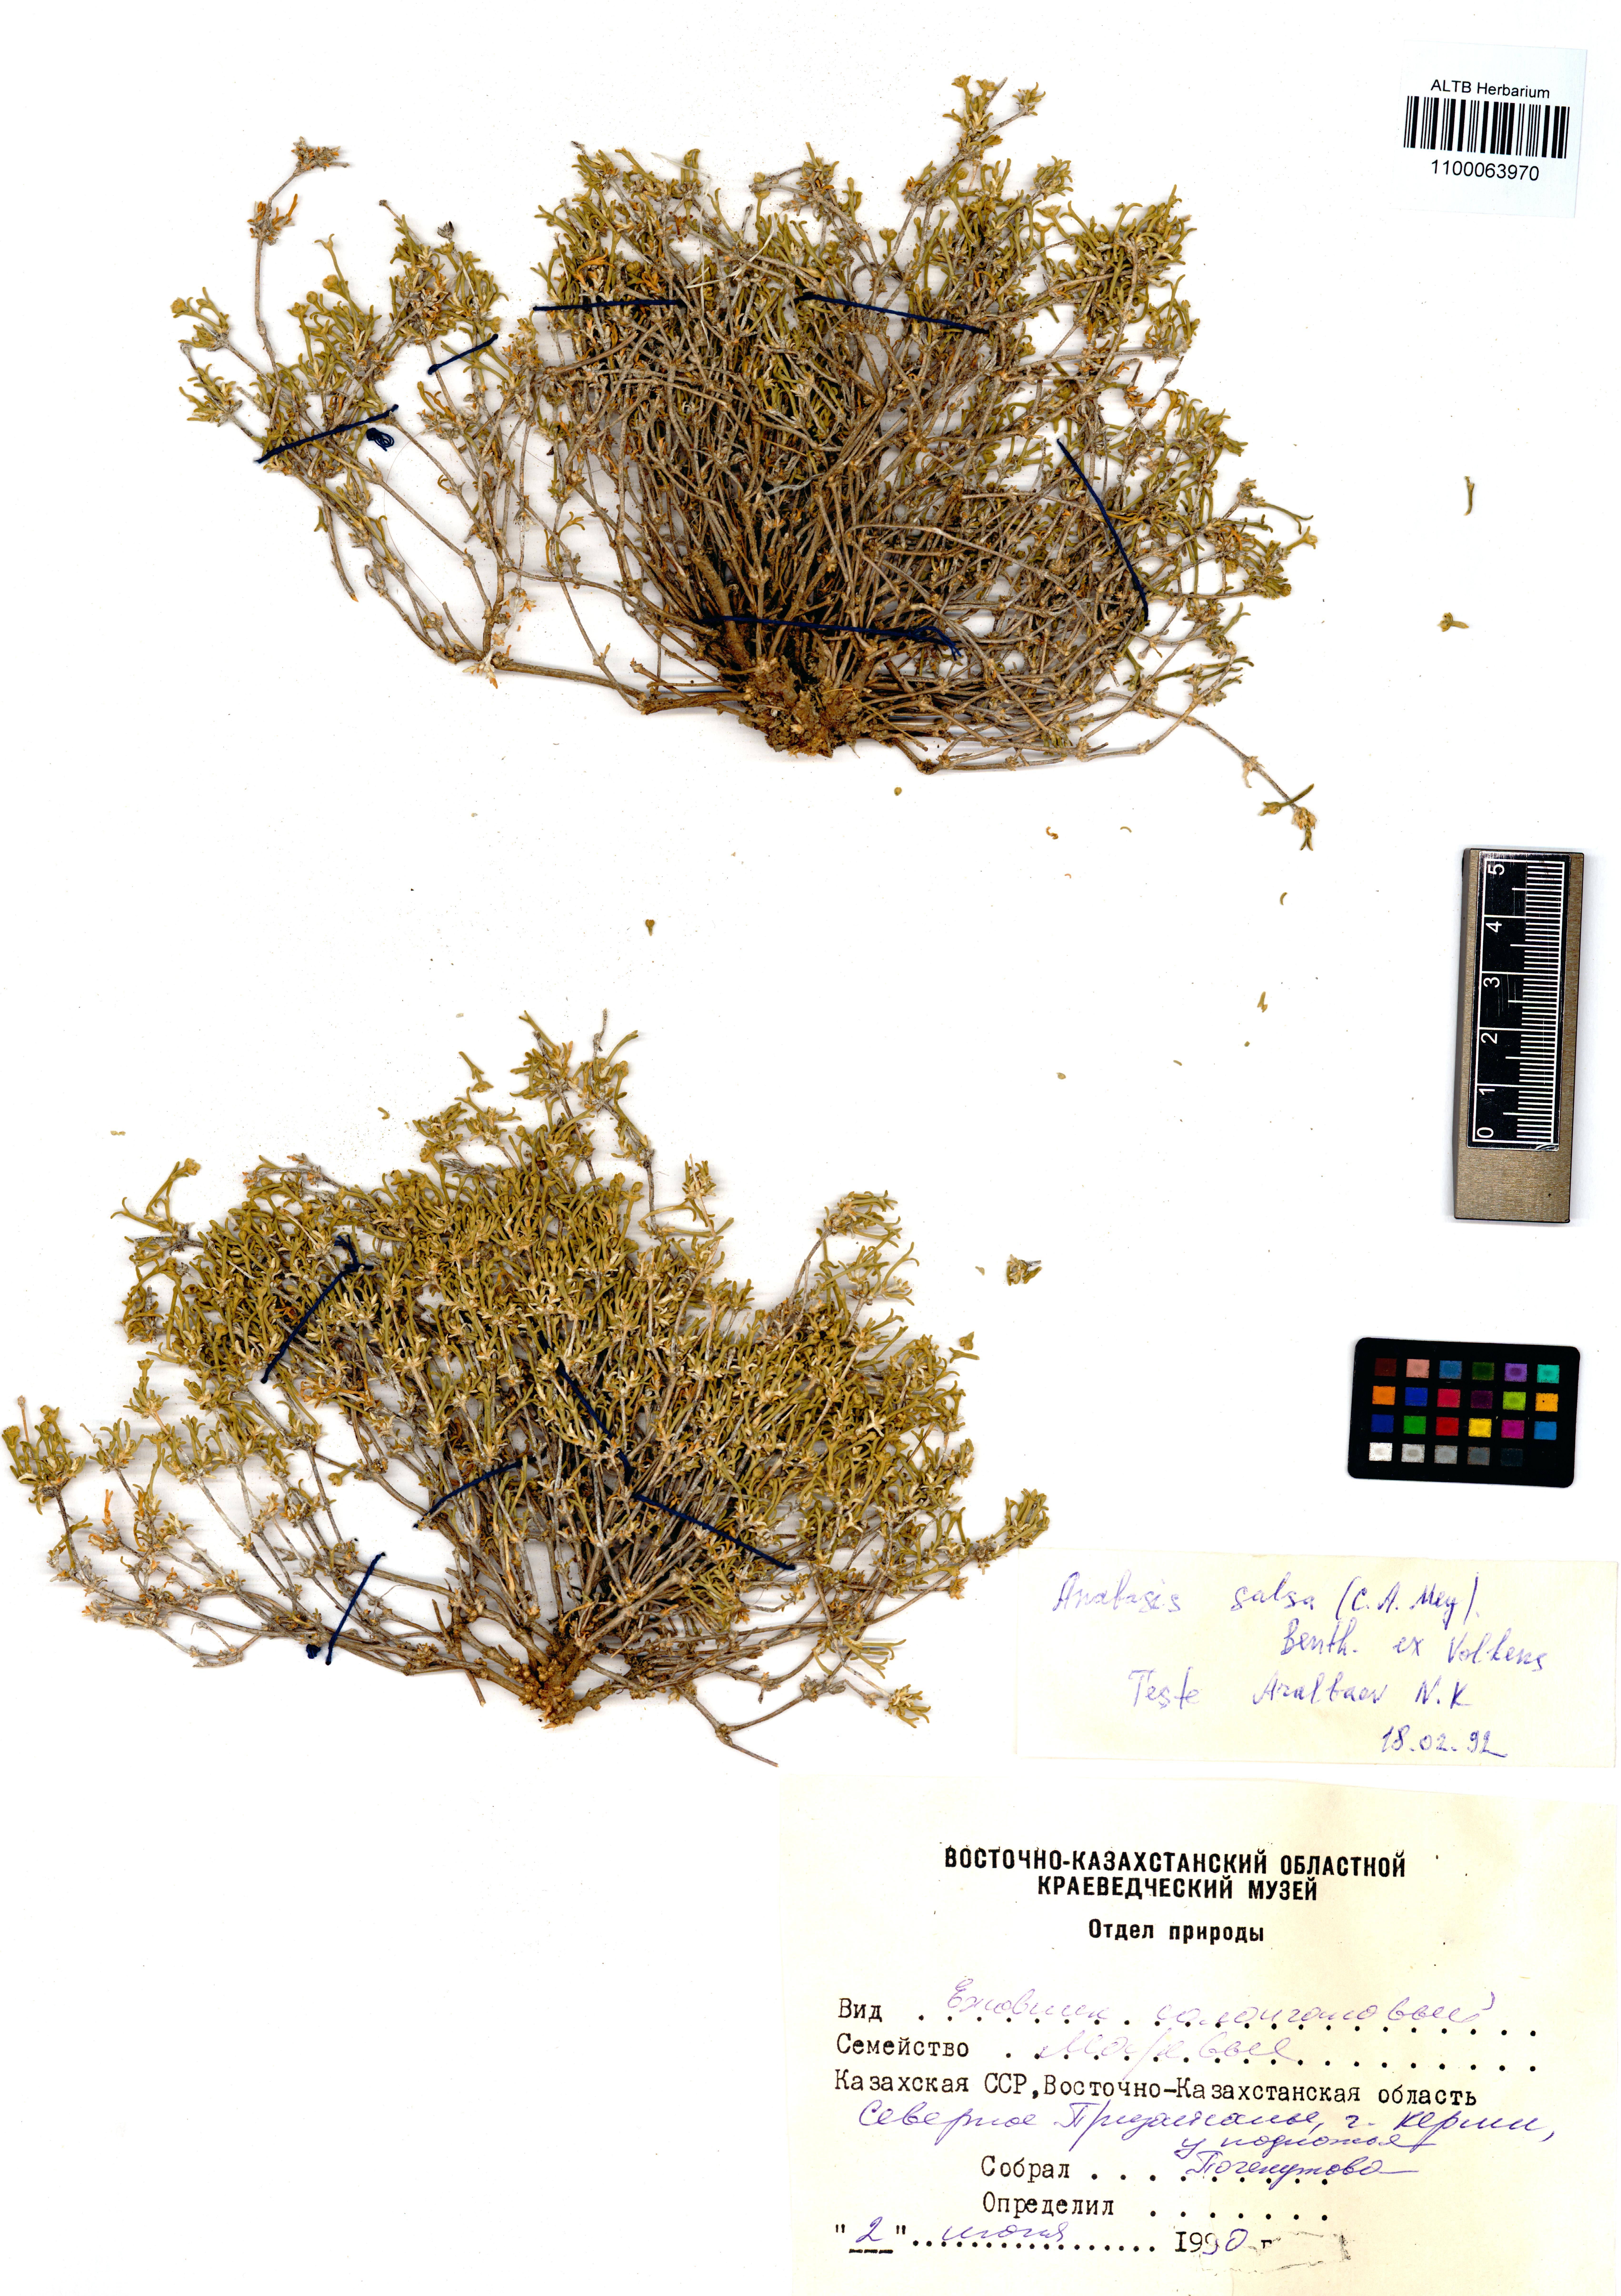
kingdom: Plantae
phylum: Tracheophyta
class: Magnoliopsida
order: Caryophyllales
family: Amaranthaceae
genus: Anabasis
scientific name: Anabasis salsa
